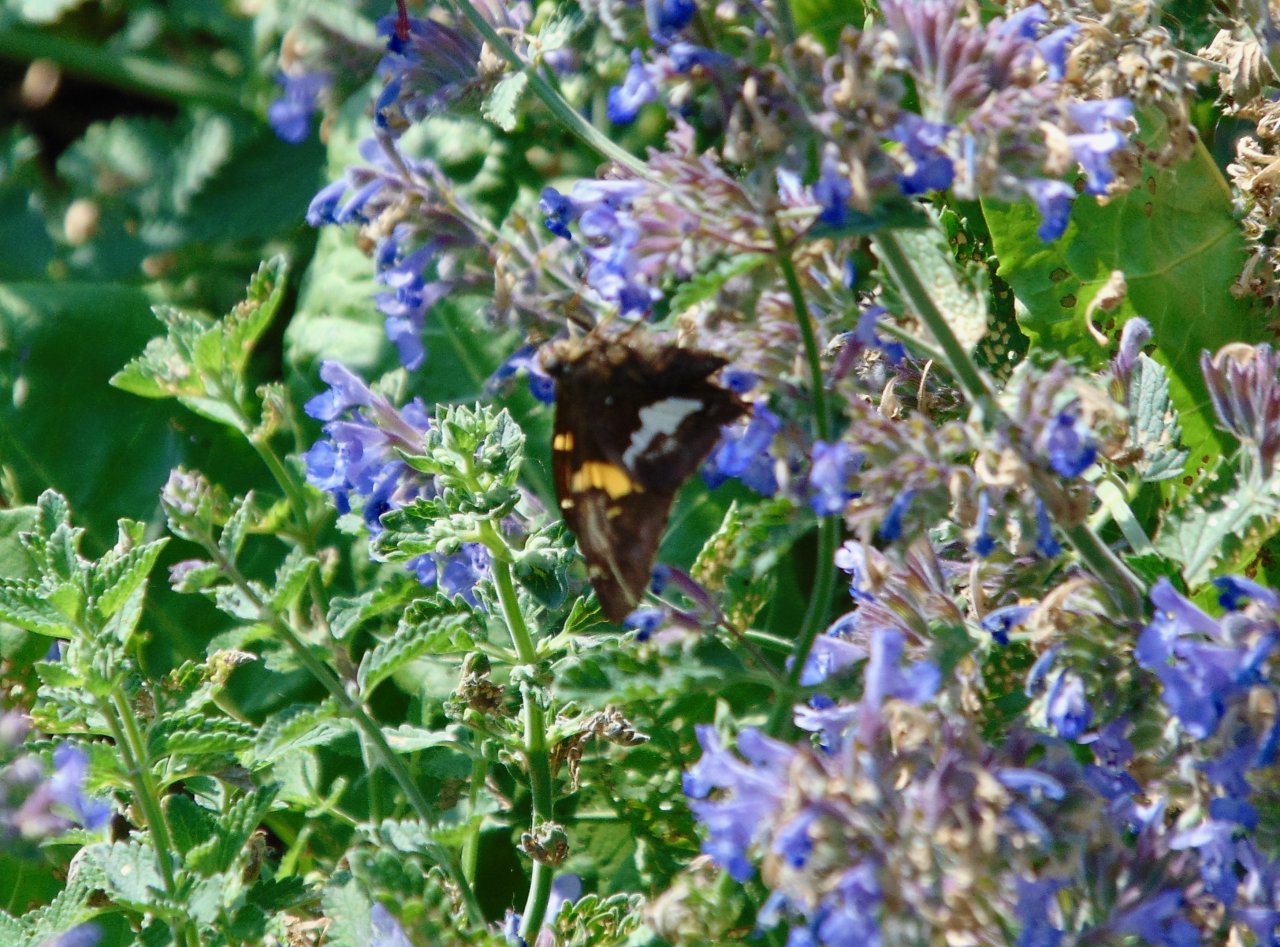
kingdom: Animalia
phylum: Arthropoda
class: Insecta
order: Lepidoptera
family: Hesperiidae
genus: Epargyreus
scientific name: Epargyreus clarus
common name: Silver-spotted Skipper
